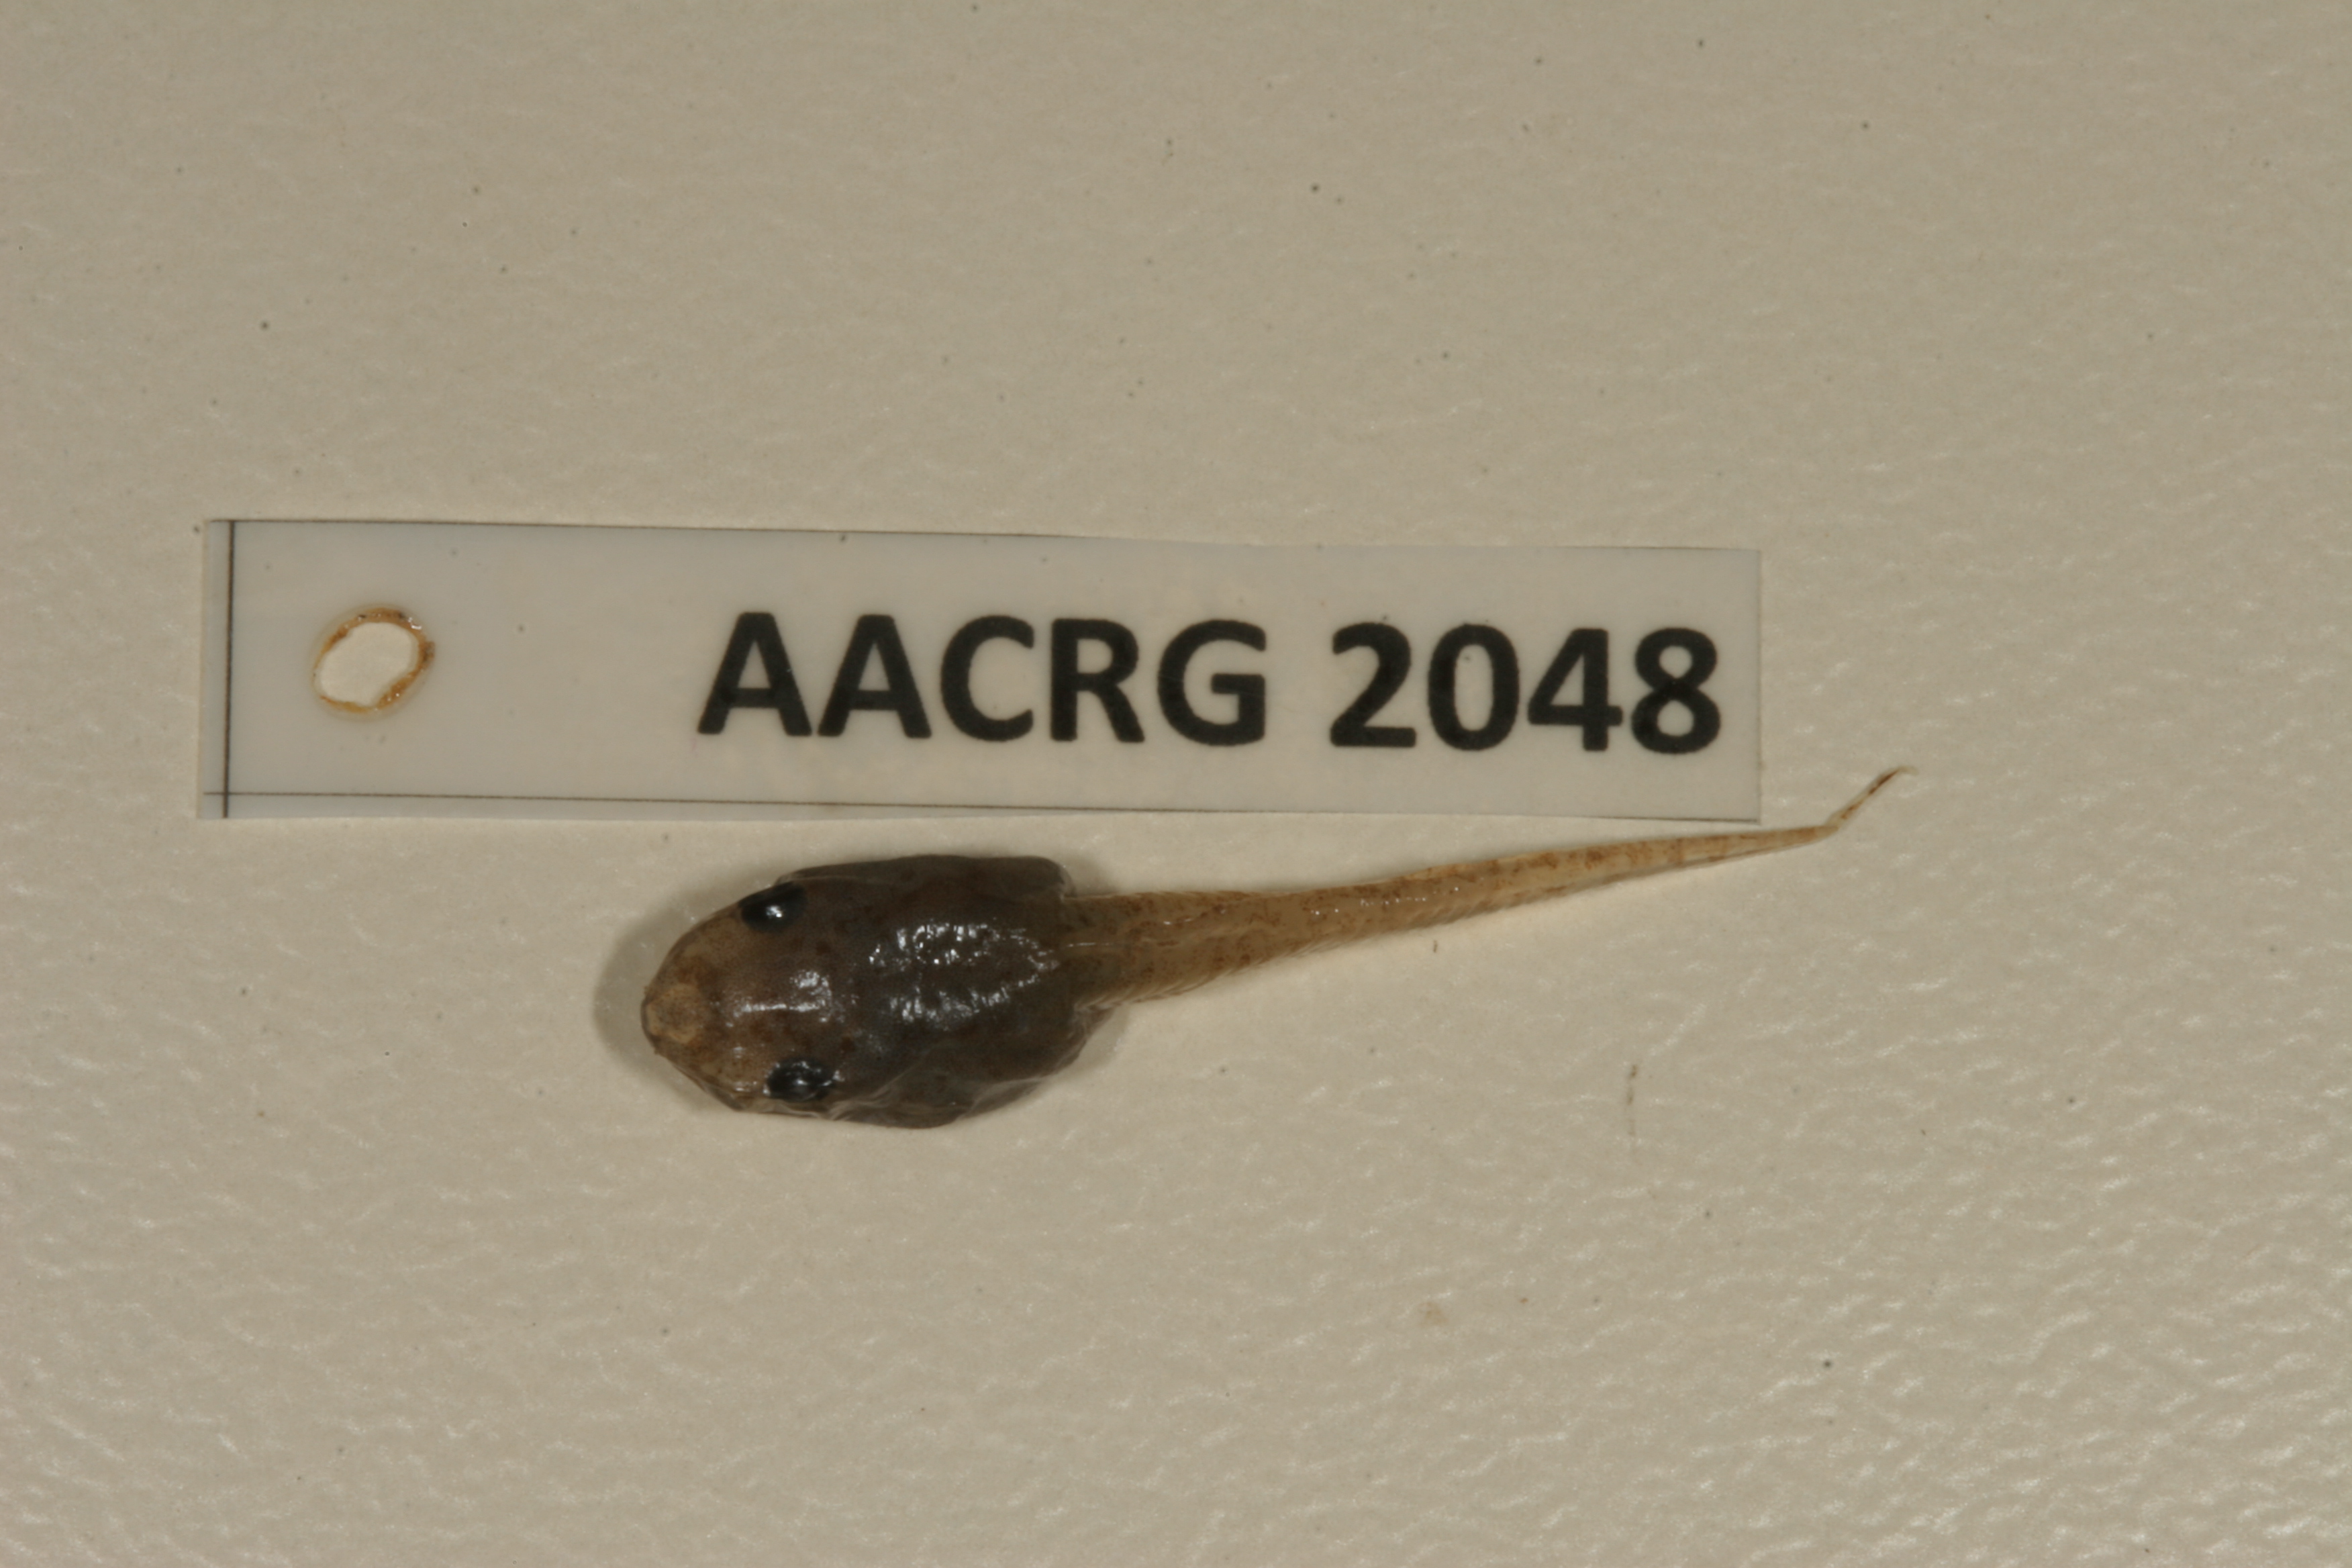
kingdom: Animalia
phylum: Chordata
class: Amphibia
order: Anura
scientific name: Anura
